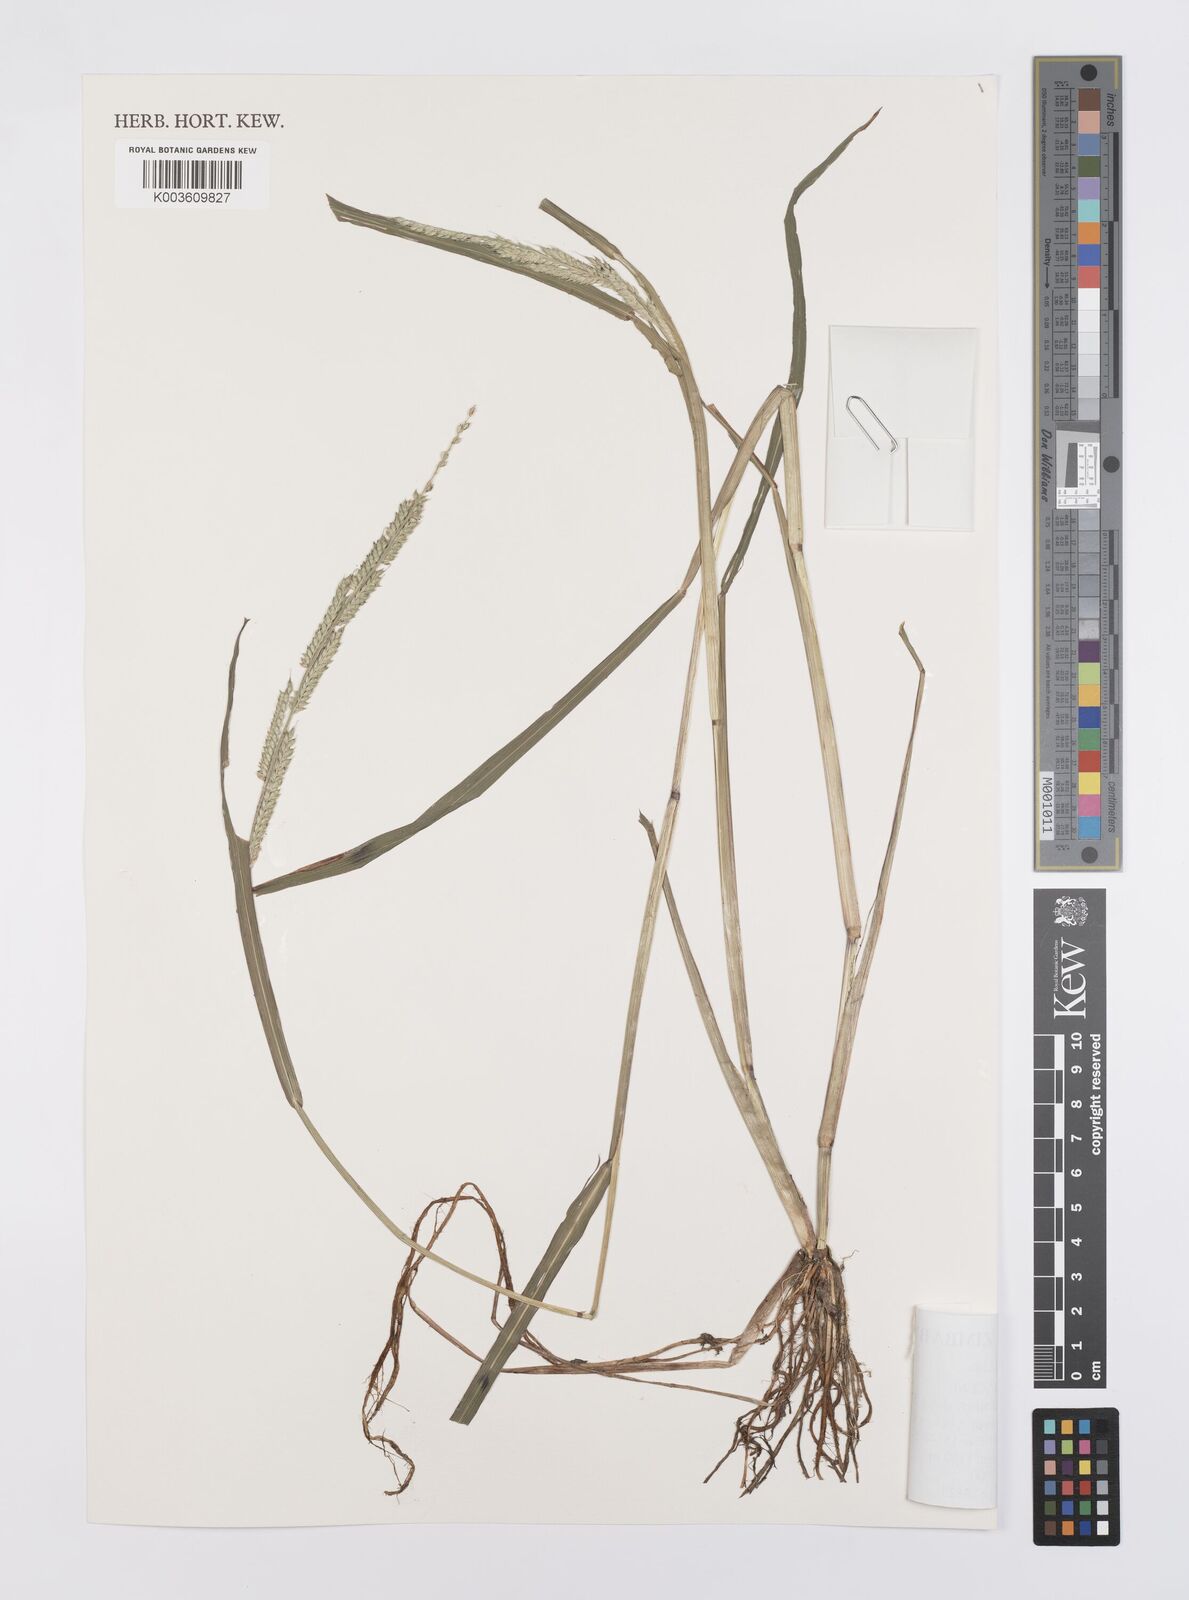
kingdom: Plantae
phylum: Tracheophyta
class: Liliopsida
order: Poales
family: Poaceae
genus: Echinochloa
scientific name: Echinochloa colonum
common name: Jungle rice
